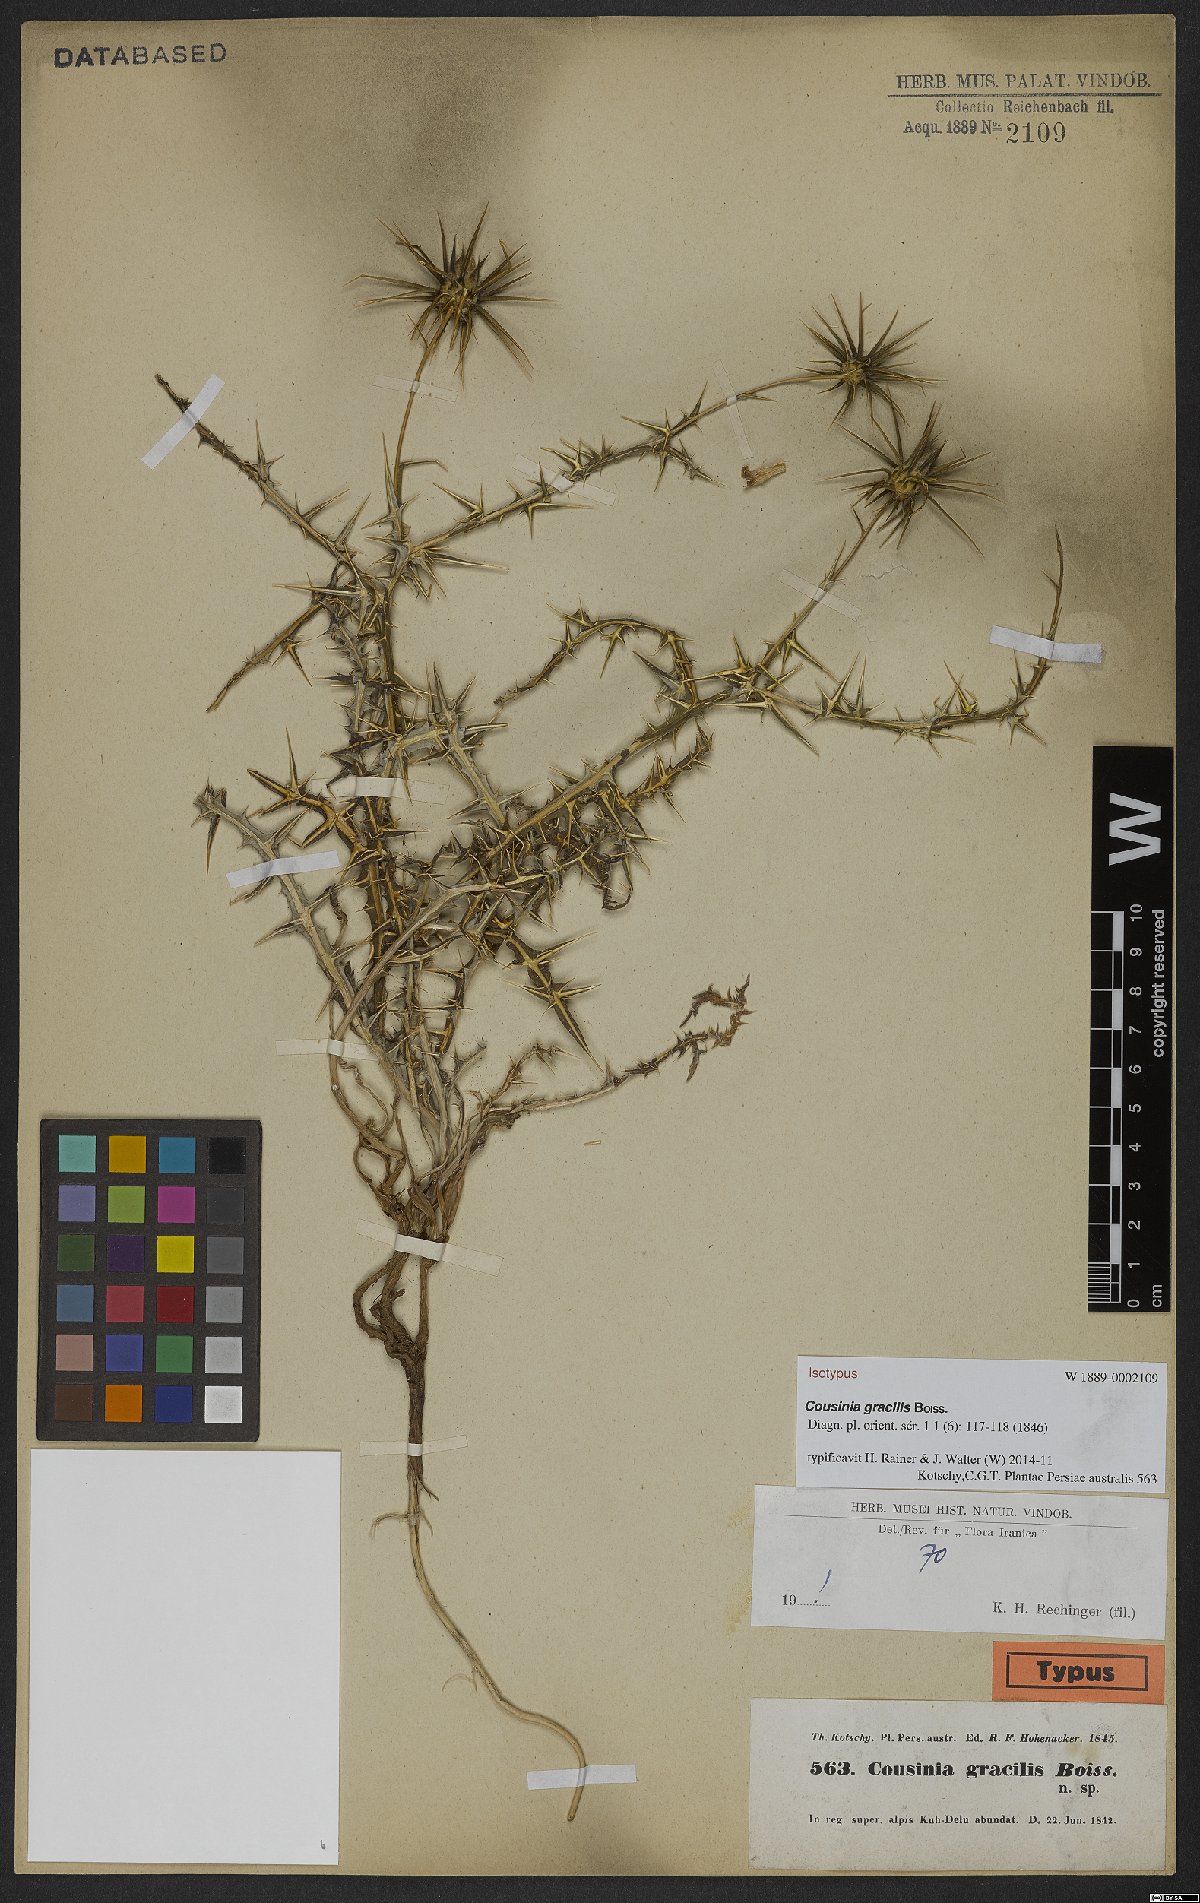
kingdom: Plantae
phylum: Tracheophyta
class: Magnoliopsida
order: Asterales
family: Asteraceae
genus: Cousinia
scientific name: Cousinia gracilis
